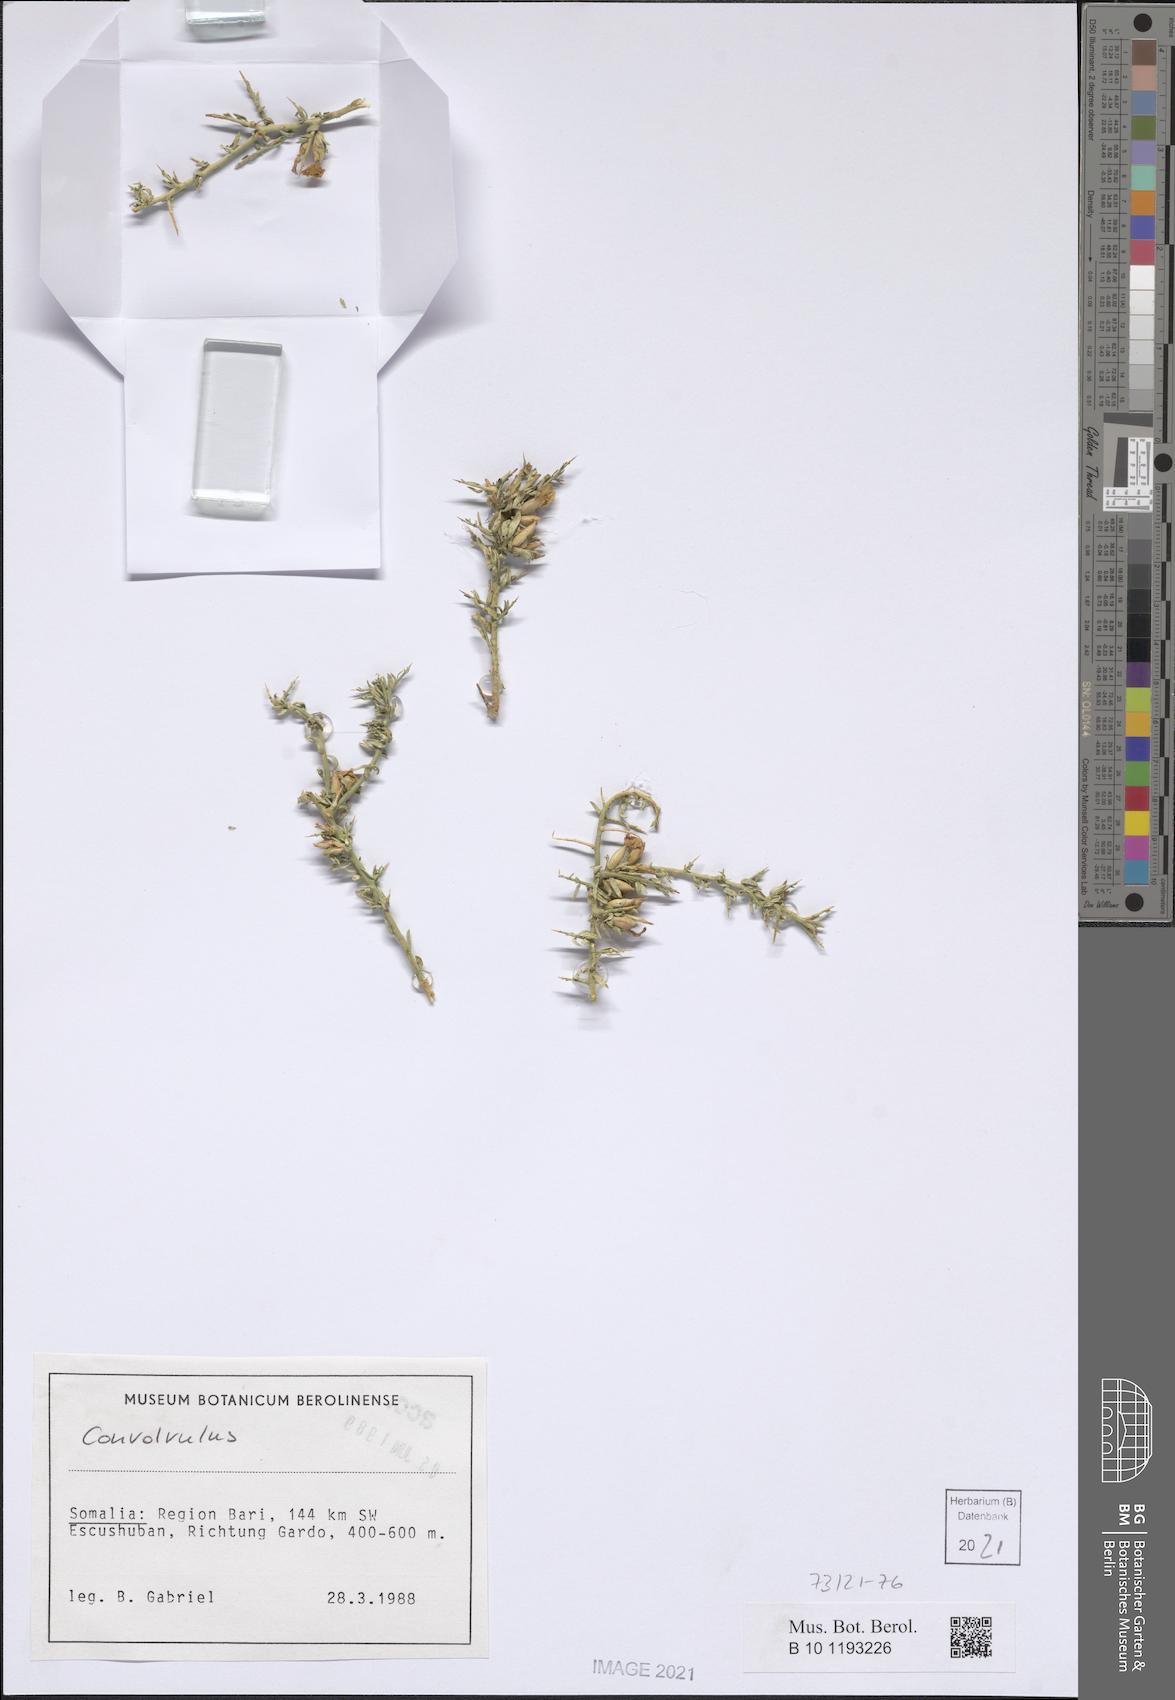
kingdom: Plantae
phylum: Tracheophyta
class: Magnoliopsida
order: Solanales
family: Convolvulaceae
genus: Convolvulus
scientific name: Convolvulus hystrix
